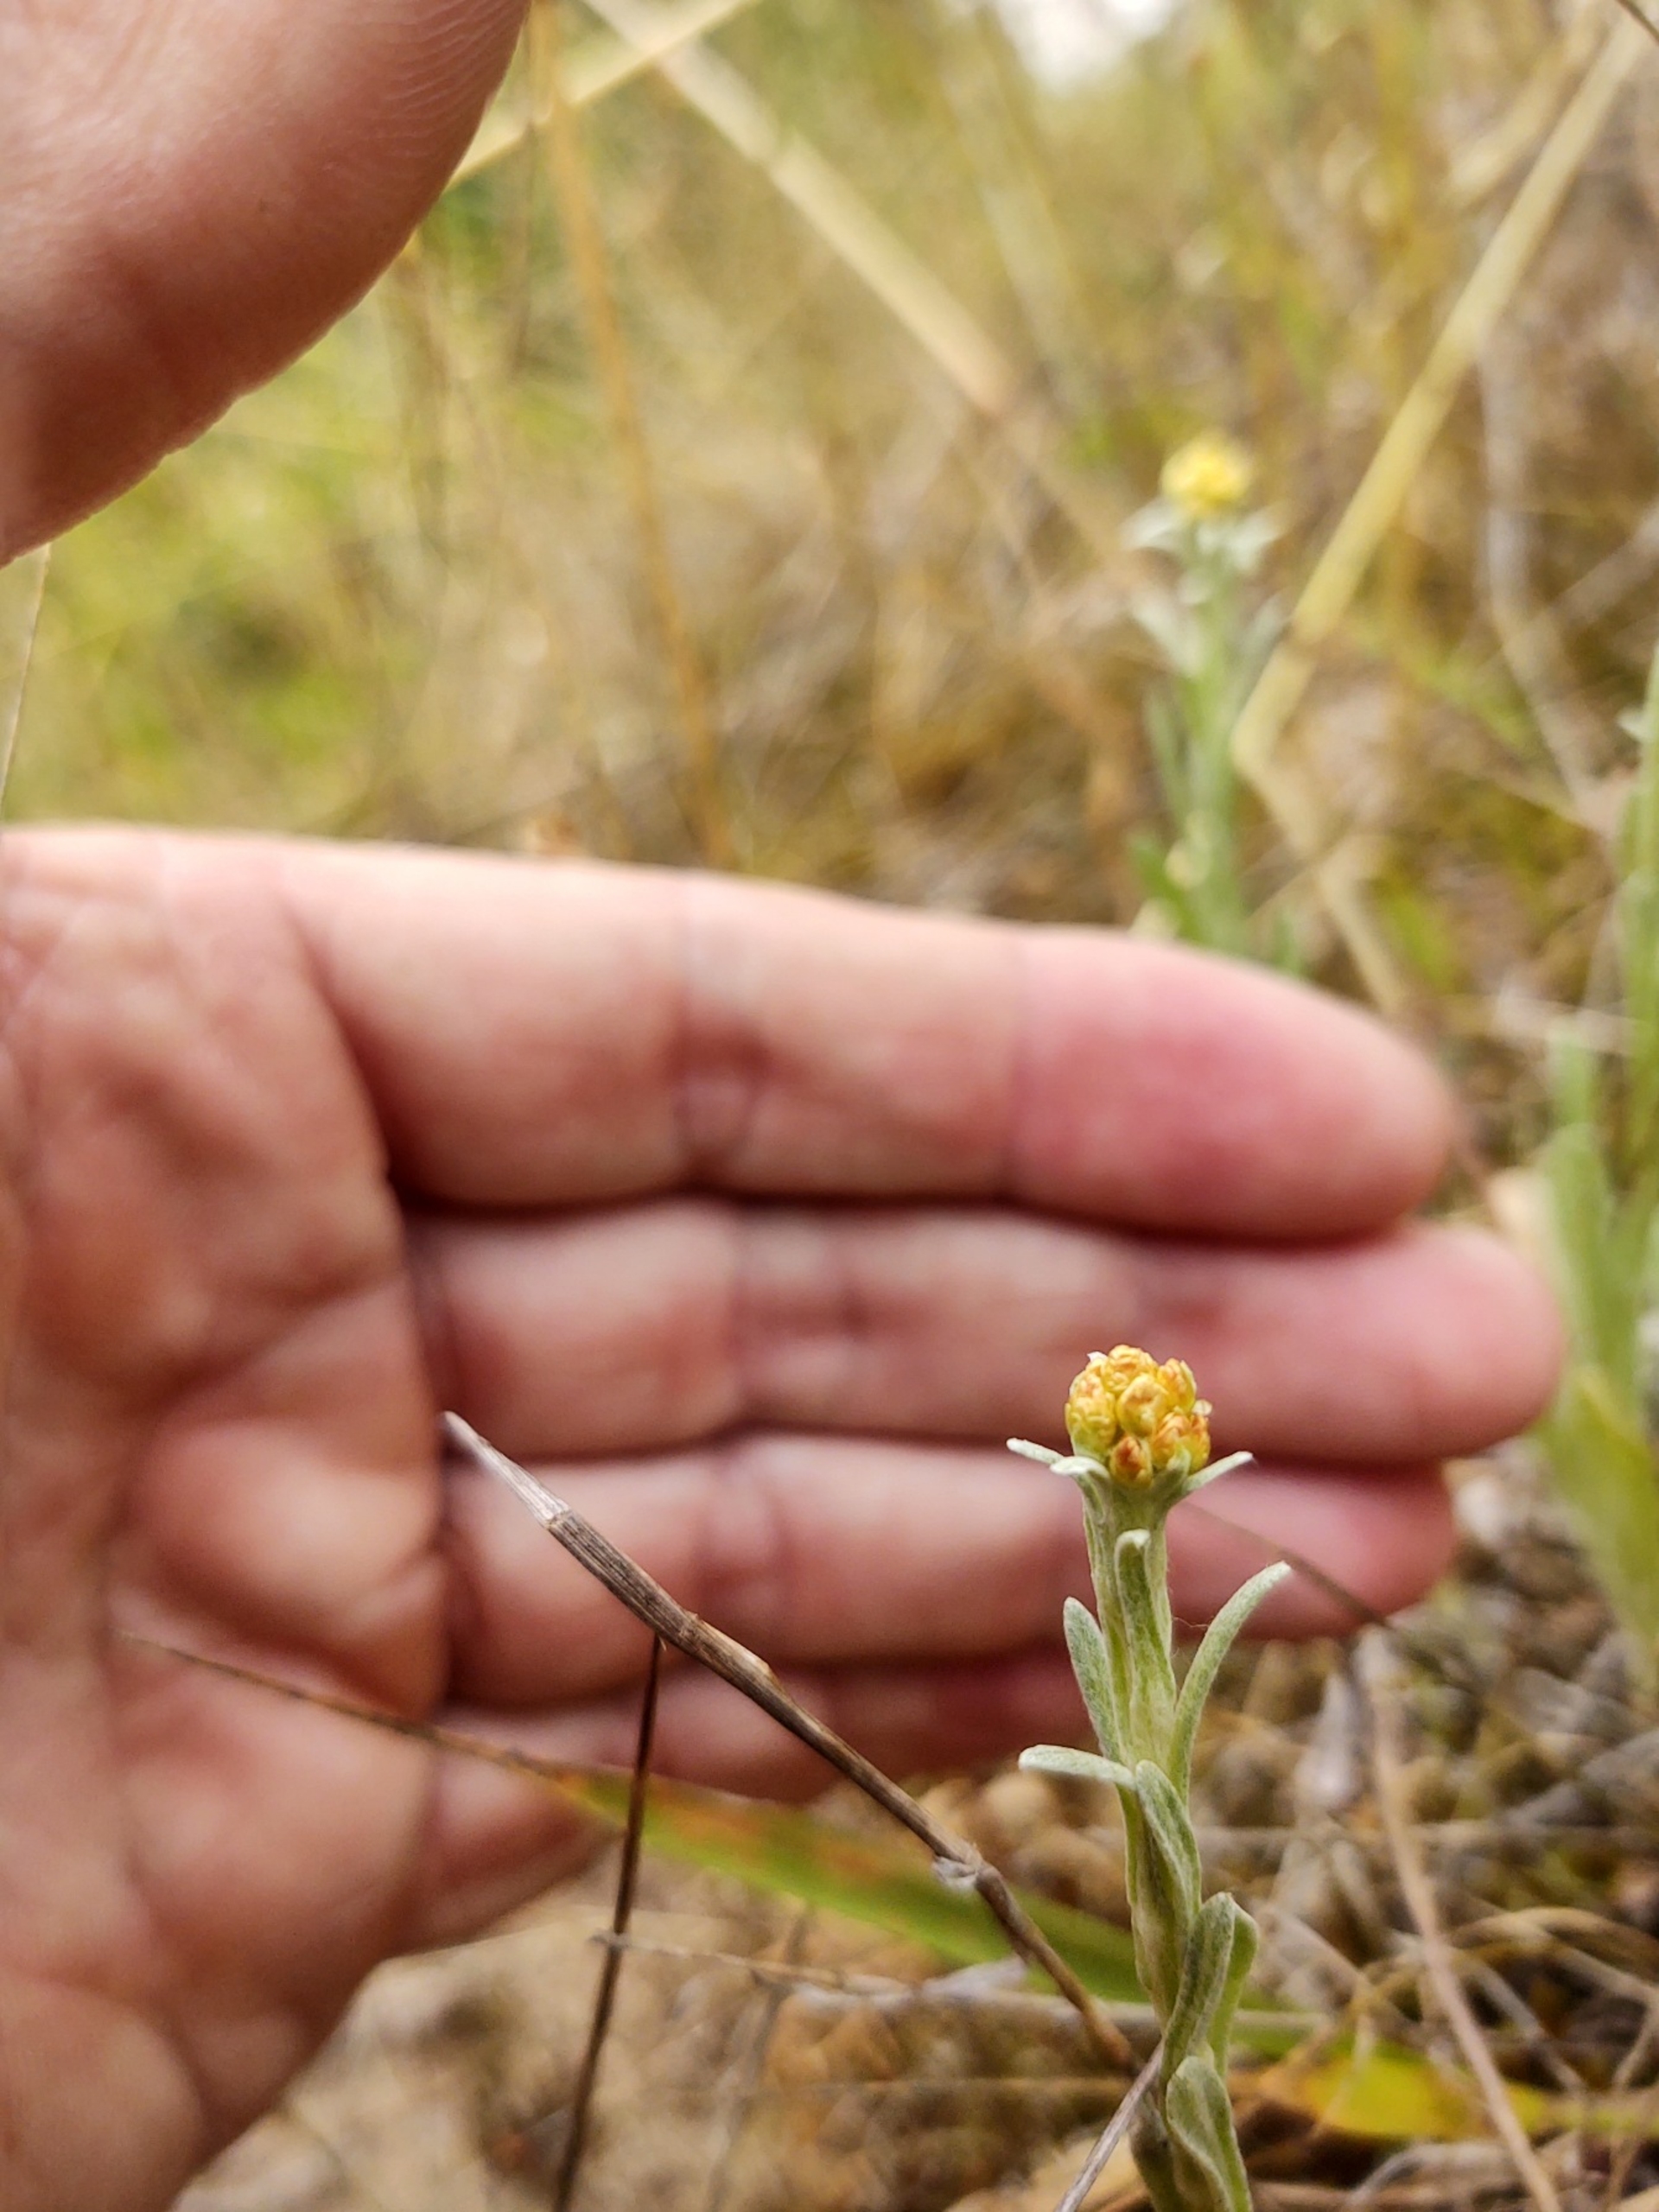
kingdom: Plantae
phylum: Tracheophyta
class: Magnoliopsida
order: Asterales
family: Asteraceae
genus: Helichrysum
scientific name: Helichrysum arenarium
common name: Gul evighedsblomst
